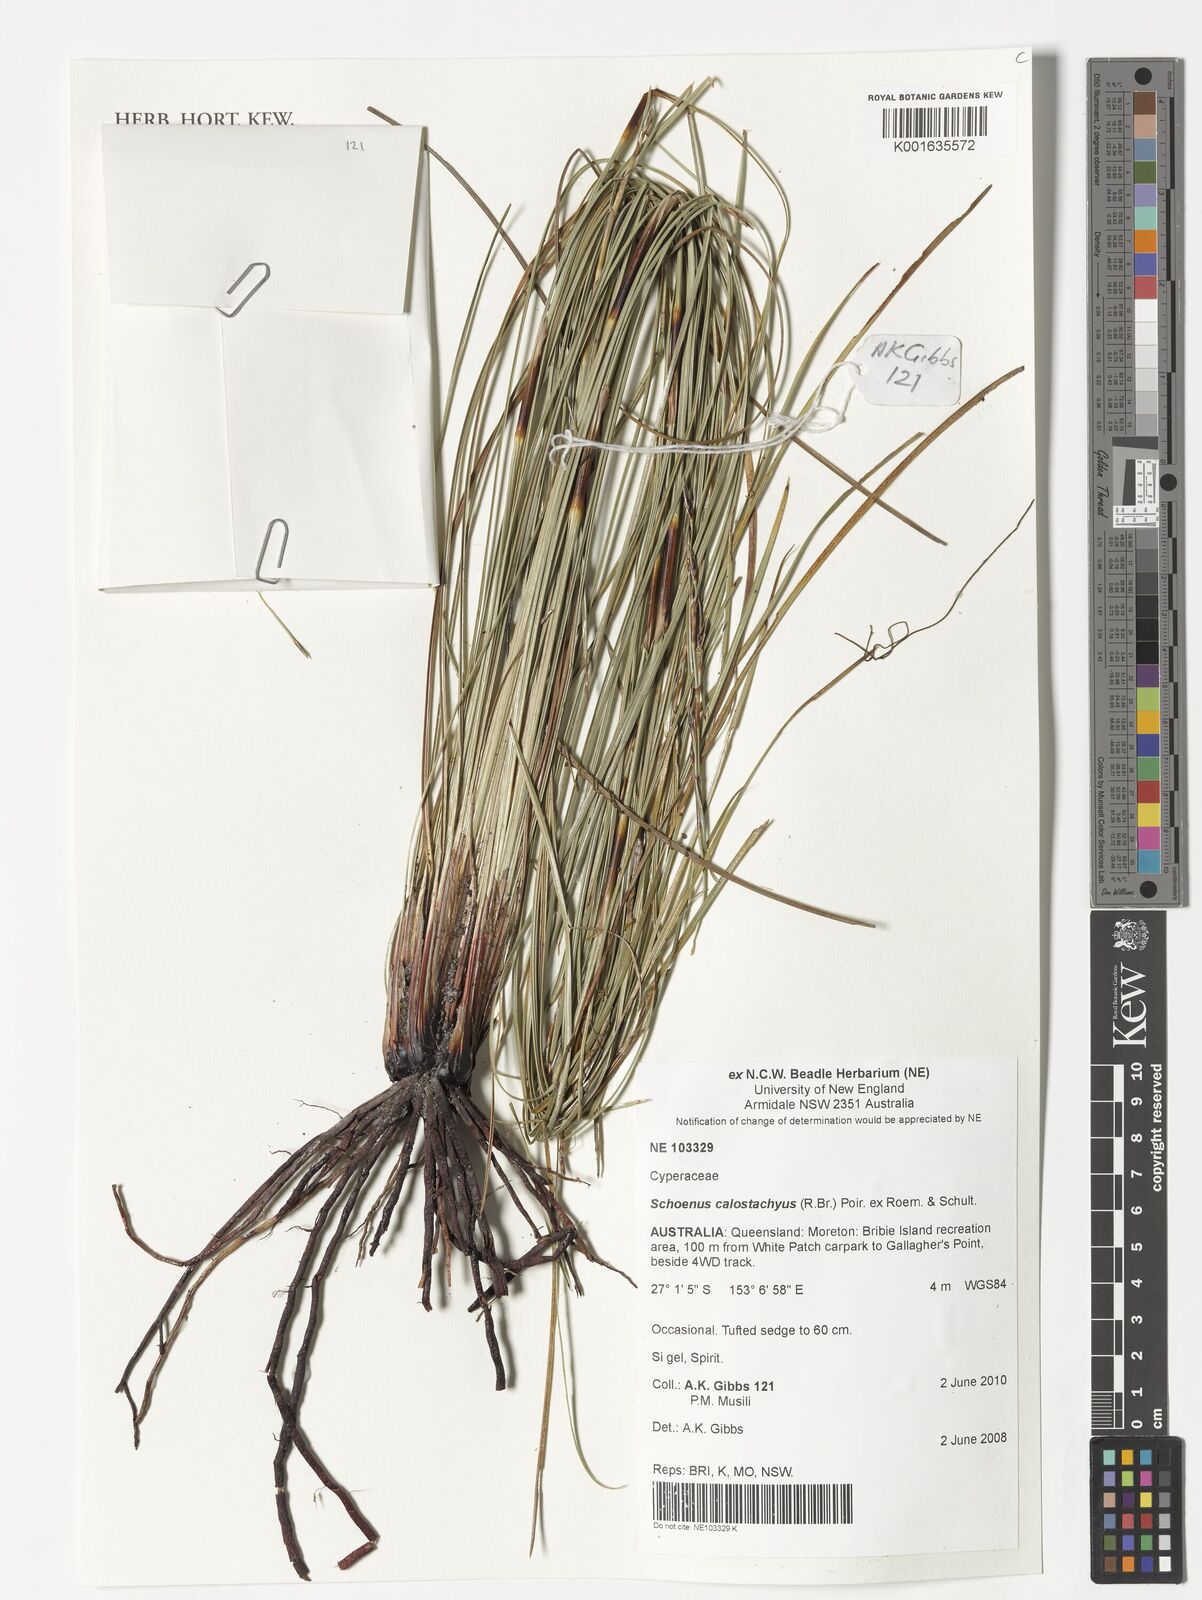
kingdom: Plantae
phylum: Tracheophyta
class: Liliopsida
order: Poales
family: Cyperaceae
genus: Schoenus
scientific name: Schoenus rigens
